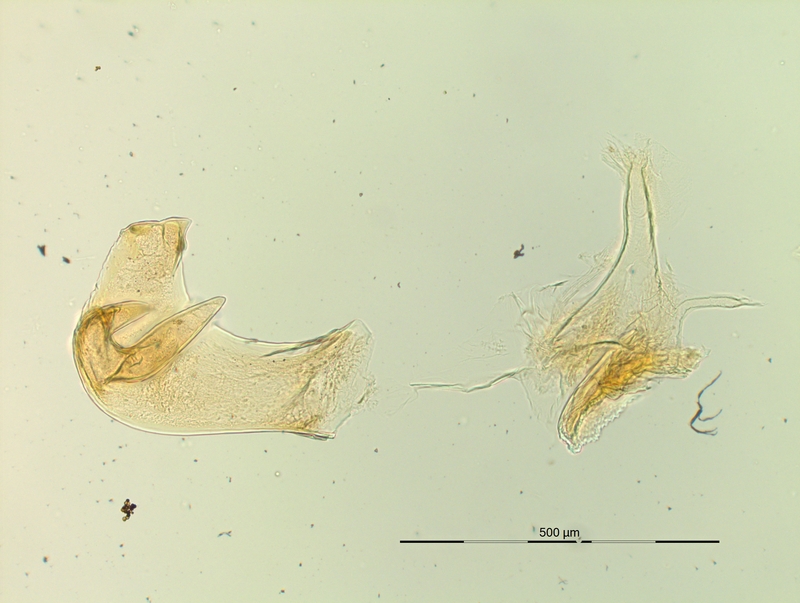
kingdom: Animalia
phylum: Arthropoda
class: Diplopoda
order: Chordeumatida
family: Craspedosomatidae
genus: Pyrgocyphosoma
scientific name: Pyrgocyphosoma brembanum
